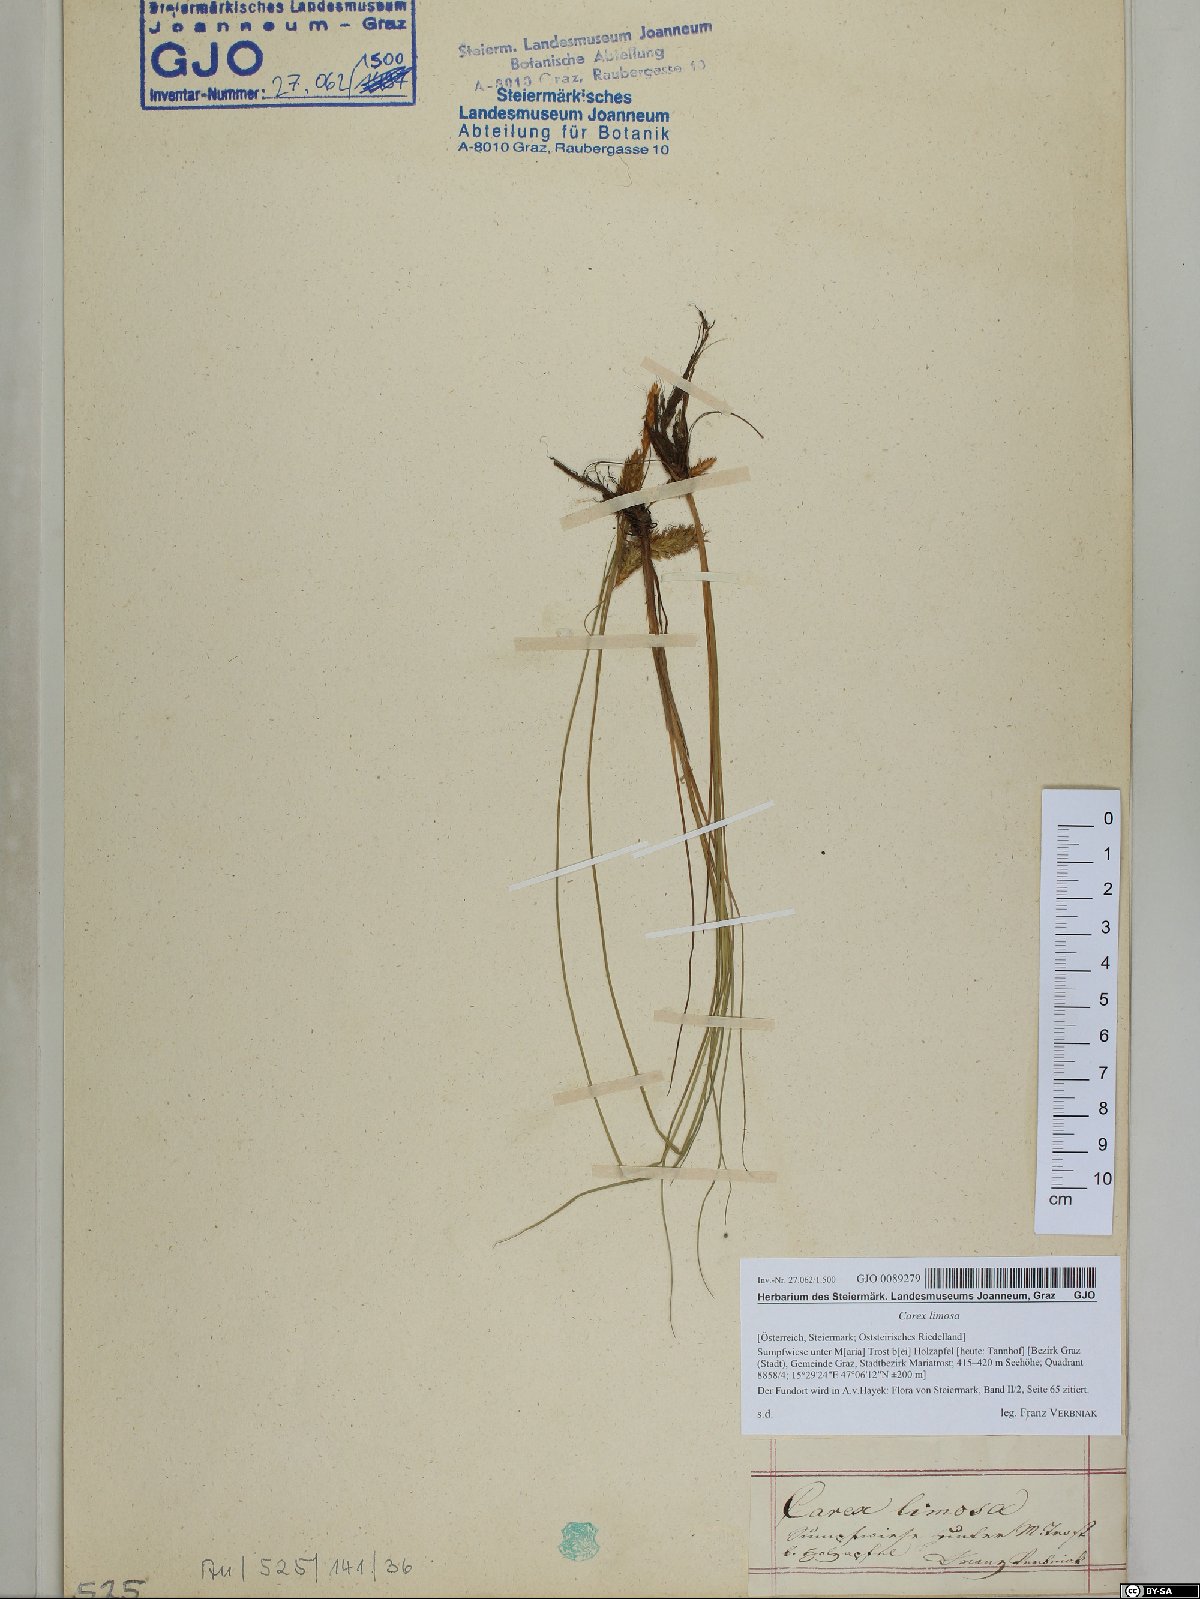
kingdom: Plantae
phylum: Tracheophyta
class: Liliopsida
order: Poales
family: Cyperaceae
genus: Carex
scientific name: Carex limosa
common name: Bog sedge
